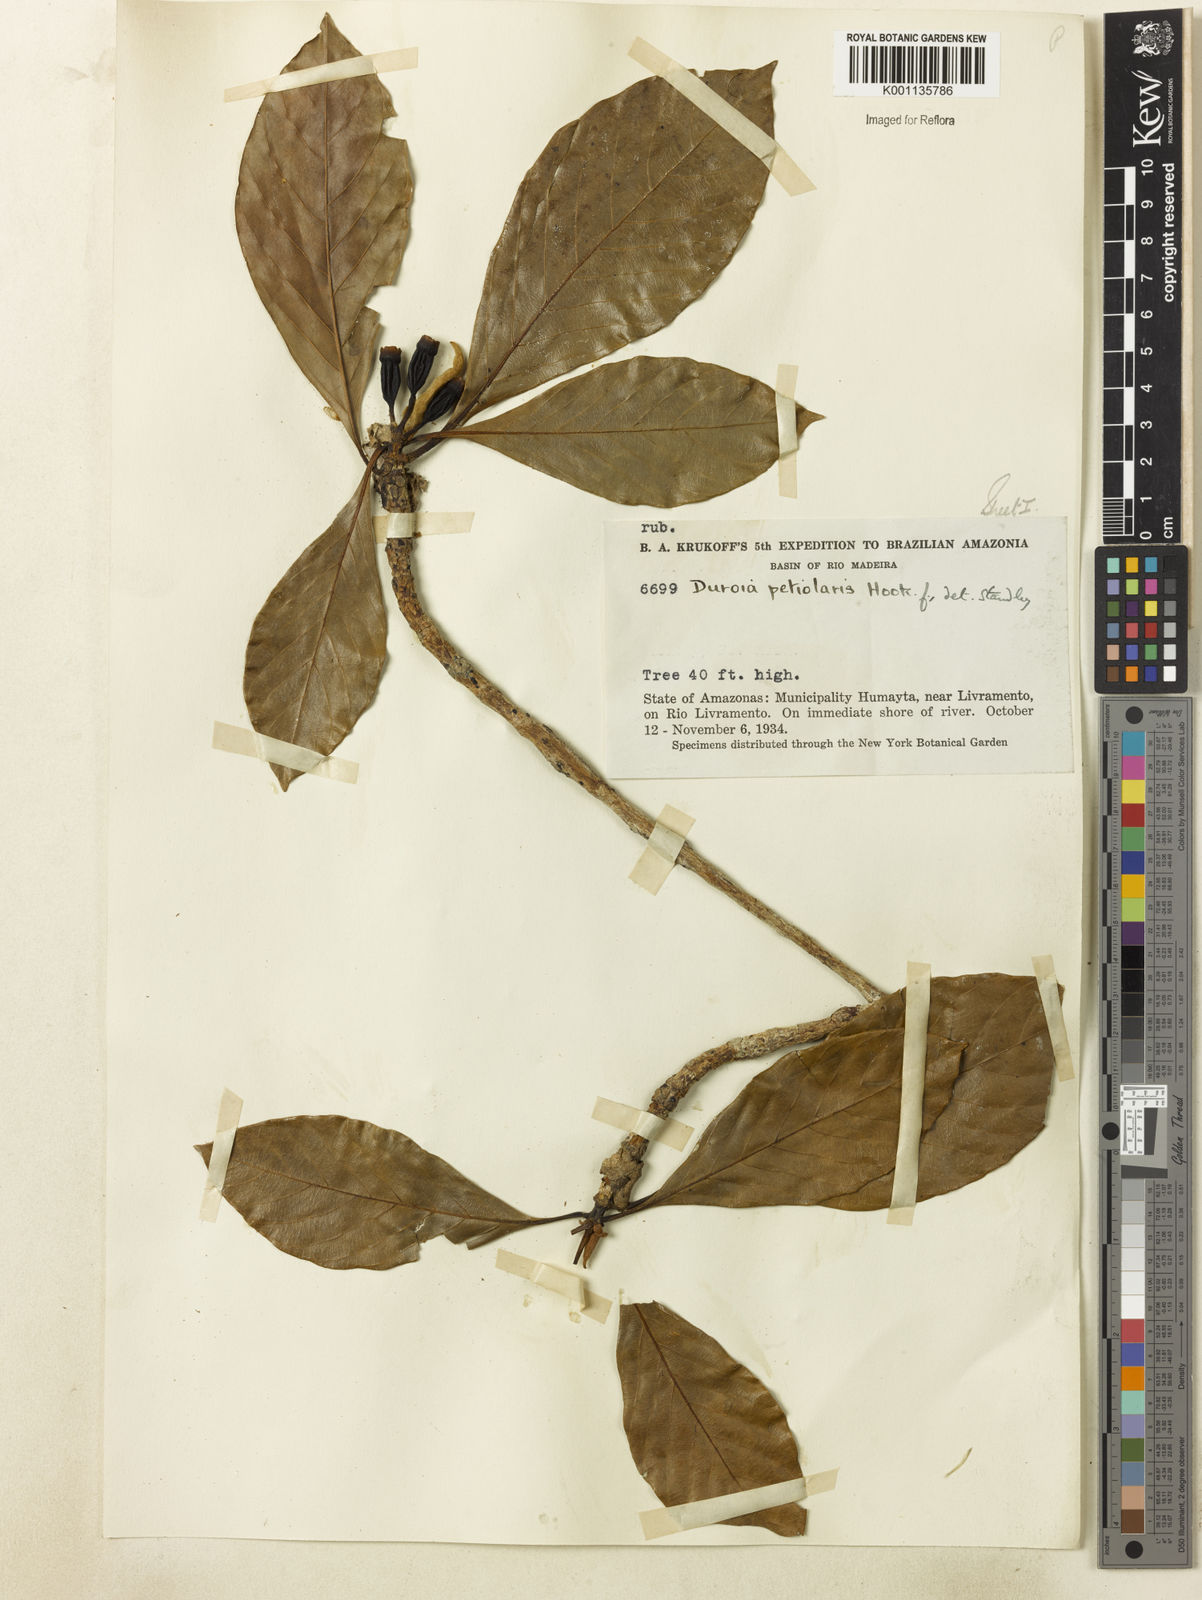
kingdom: Plantae
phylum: Tracheophyta
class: Magnoliopsida
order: Gentianales
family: Rubiaceae
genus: Duroia
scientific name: Duroia petiolaris
